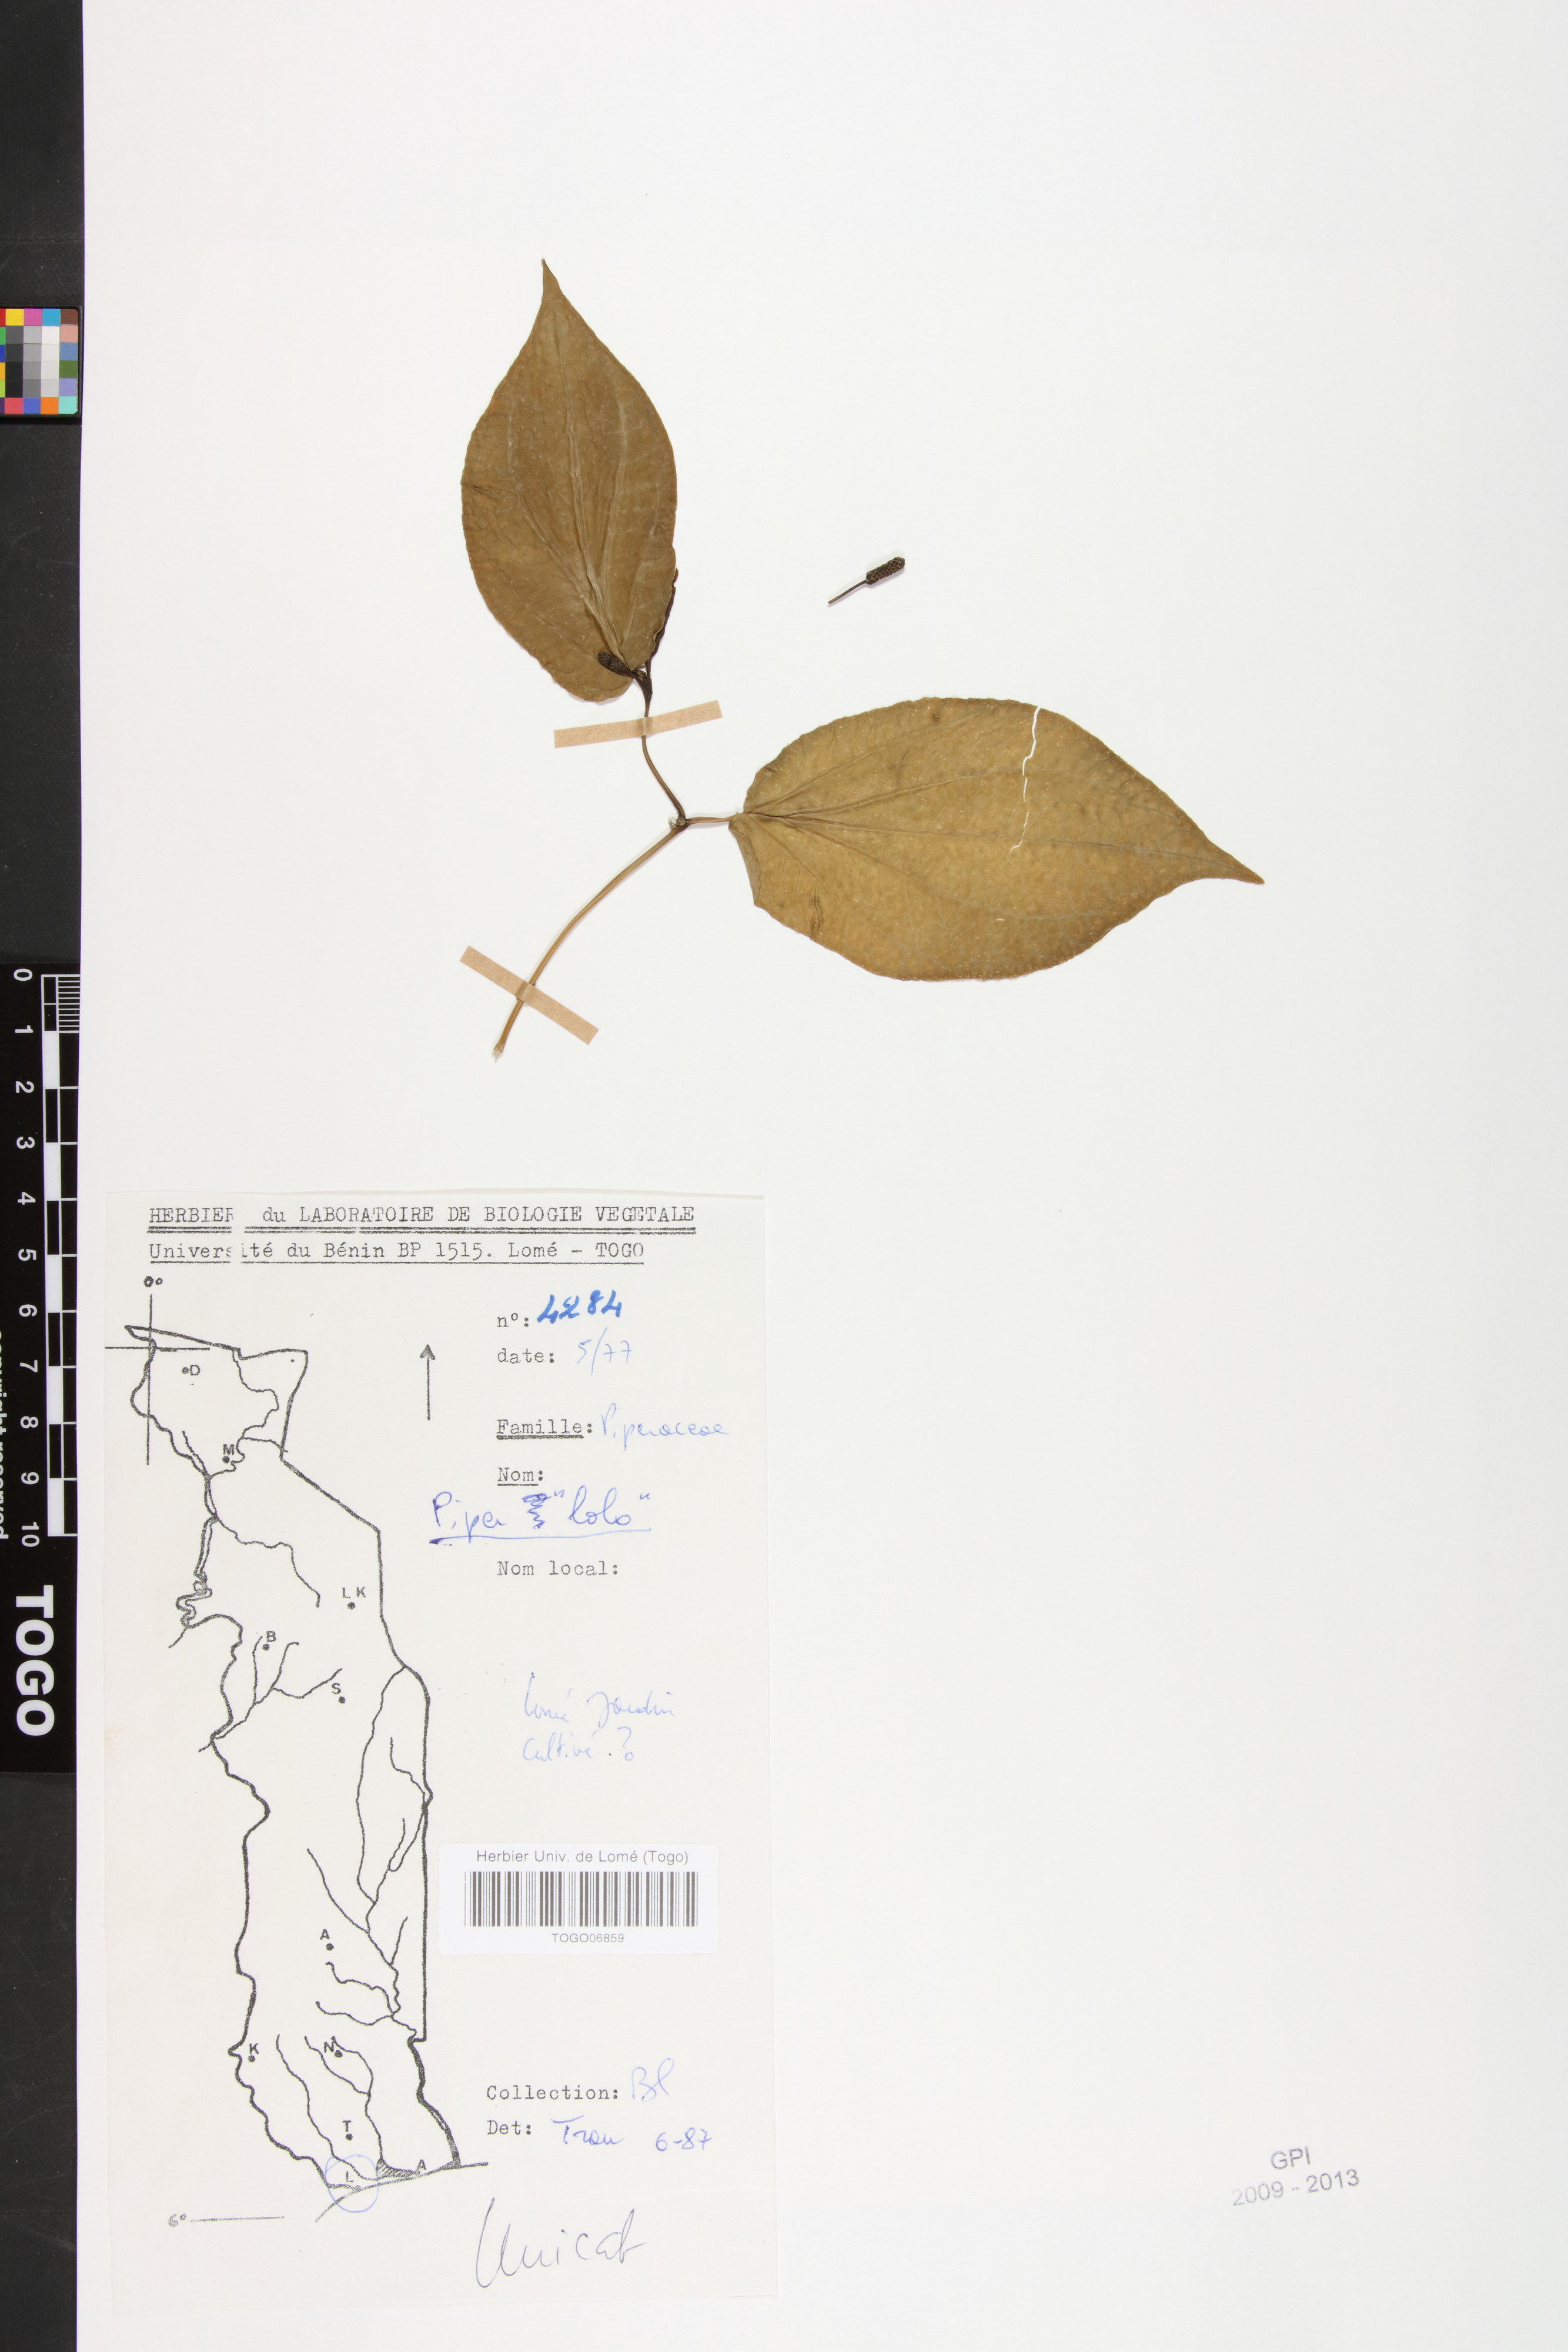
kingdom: Plantae
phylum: Tracheophyta
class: Magnoliopsida
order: Piperales
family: Piperaceae
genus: Piper
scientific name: Piper sarmentosum
